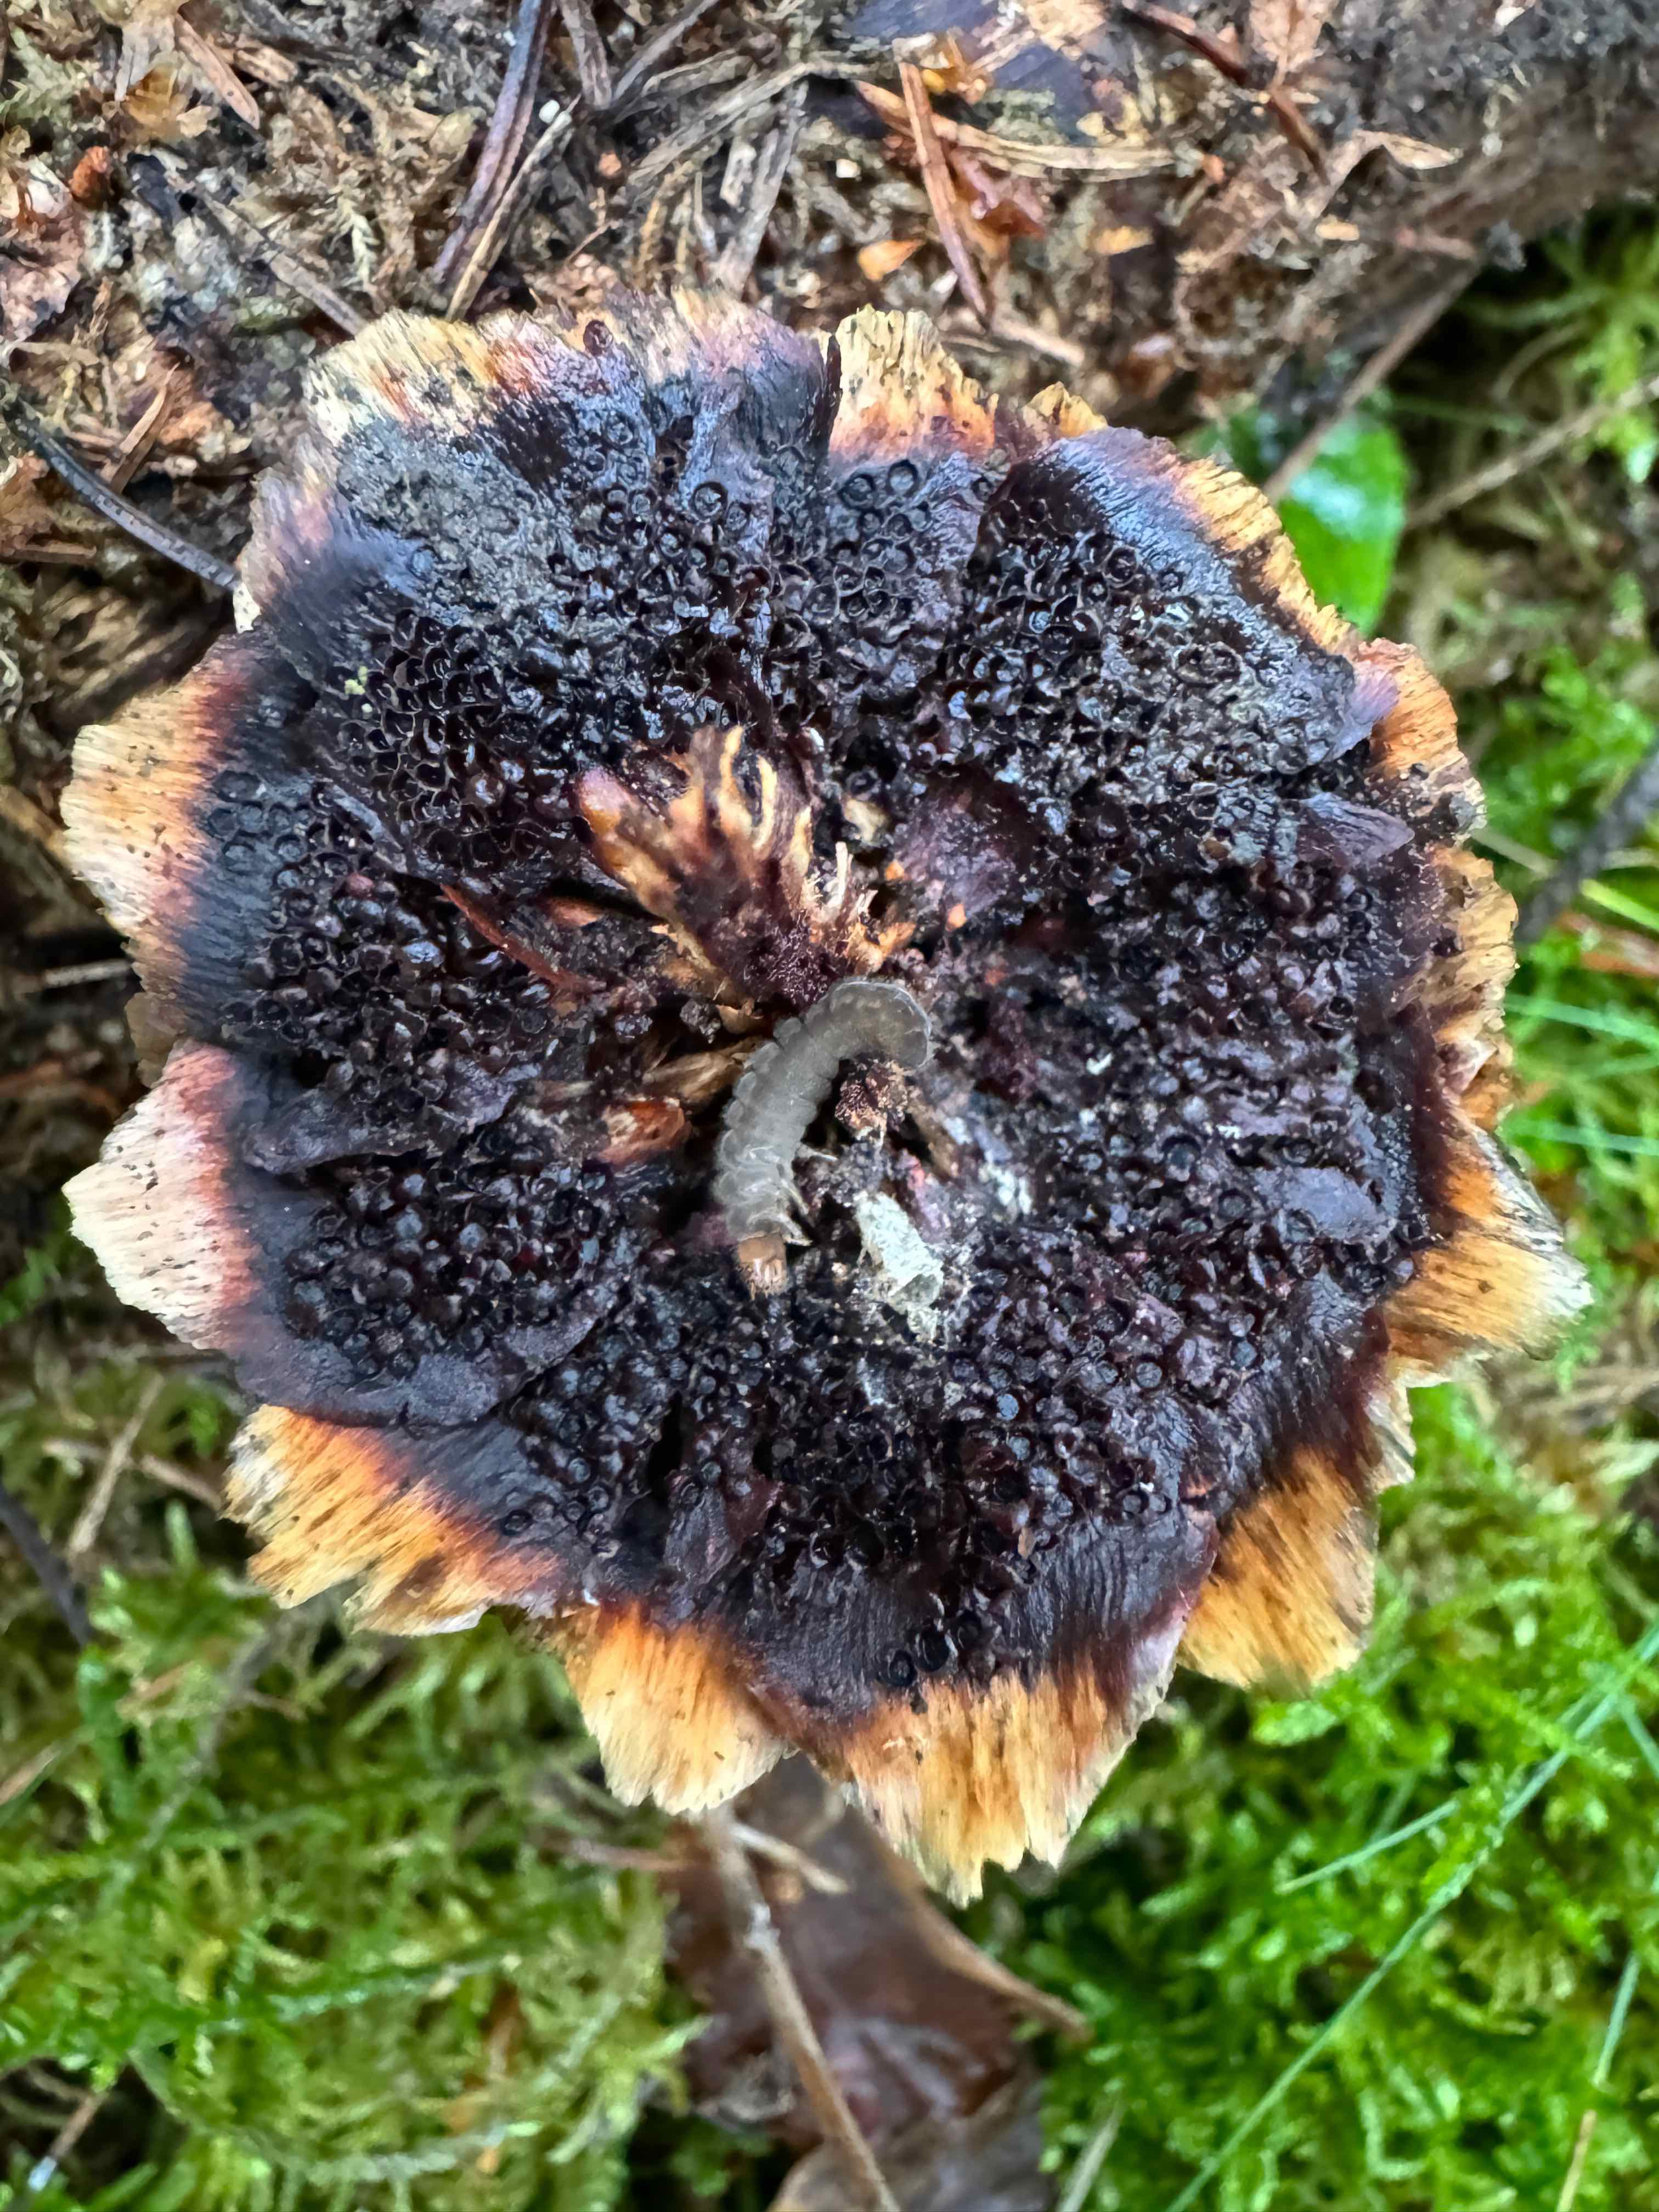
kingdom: Fungi
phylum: Basidiomycota
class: Pucciniomycetes
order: Pucciniales
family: Pucciniastraceae
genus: Thekopsora
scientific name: Thekopsora areolata
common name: grankogle-nålerust
